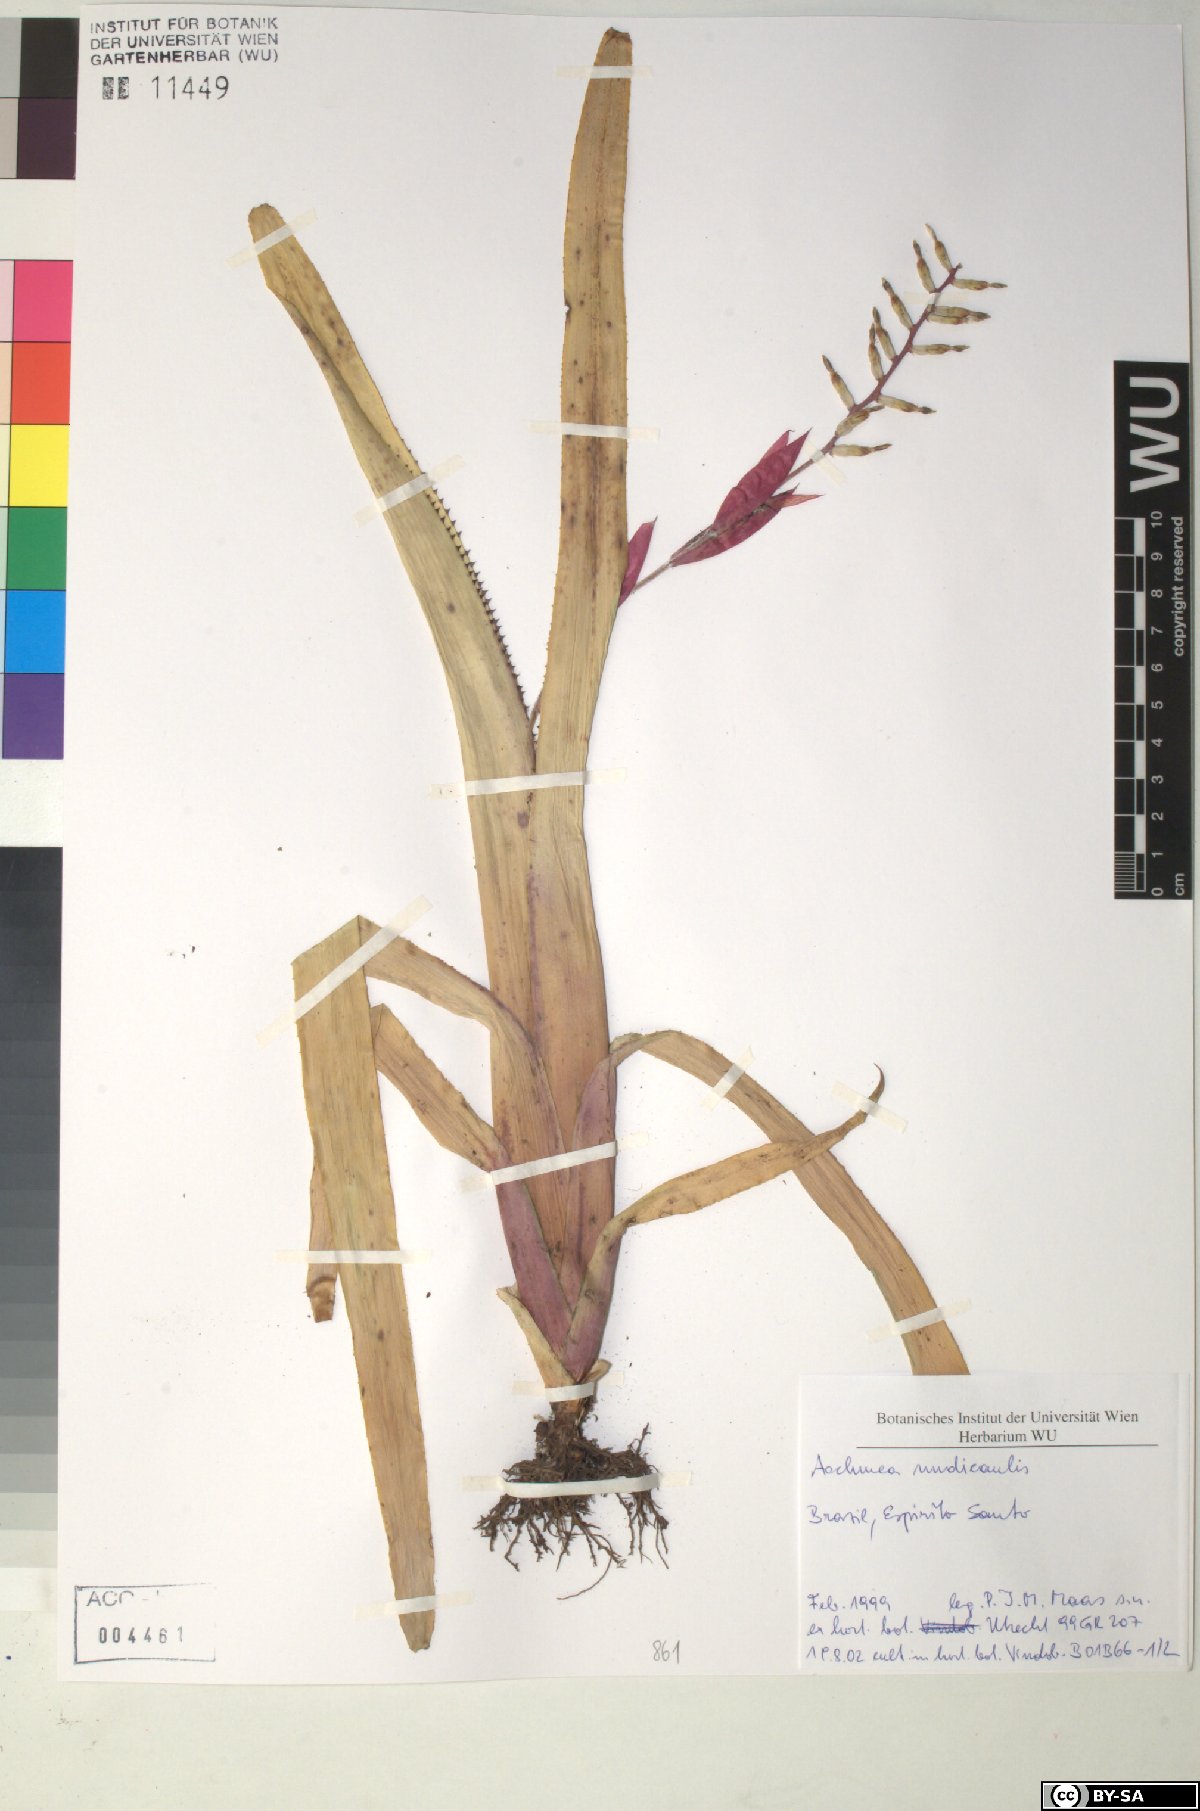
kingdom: Plantae
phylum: Tracheophyta
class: Liliopsida
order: Poales
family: Bromeliaceae
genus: Aechmea
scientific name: Aechmea nudicaulis
